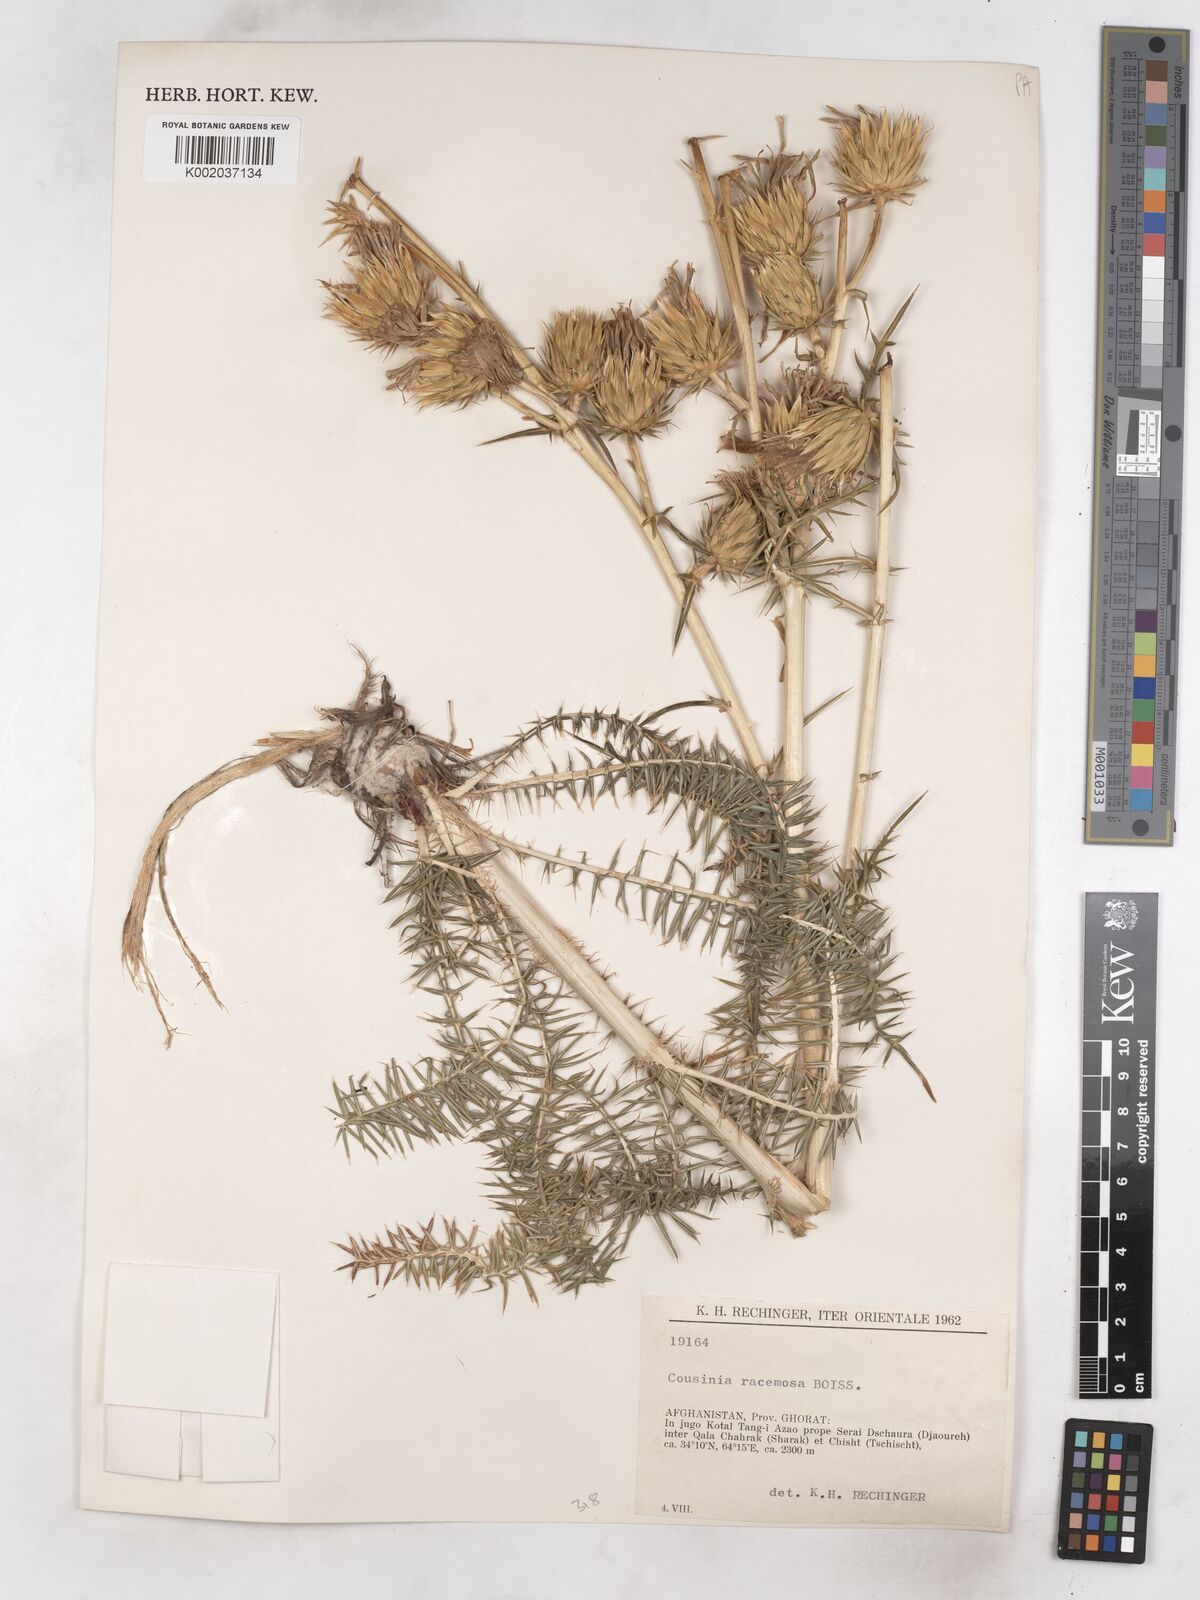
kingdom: Plantae
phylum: Tracheophyta
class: Magnoliopsida
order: Asterales
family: Asteraceae
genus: Cousinia
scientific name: Cousinia racemosa
